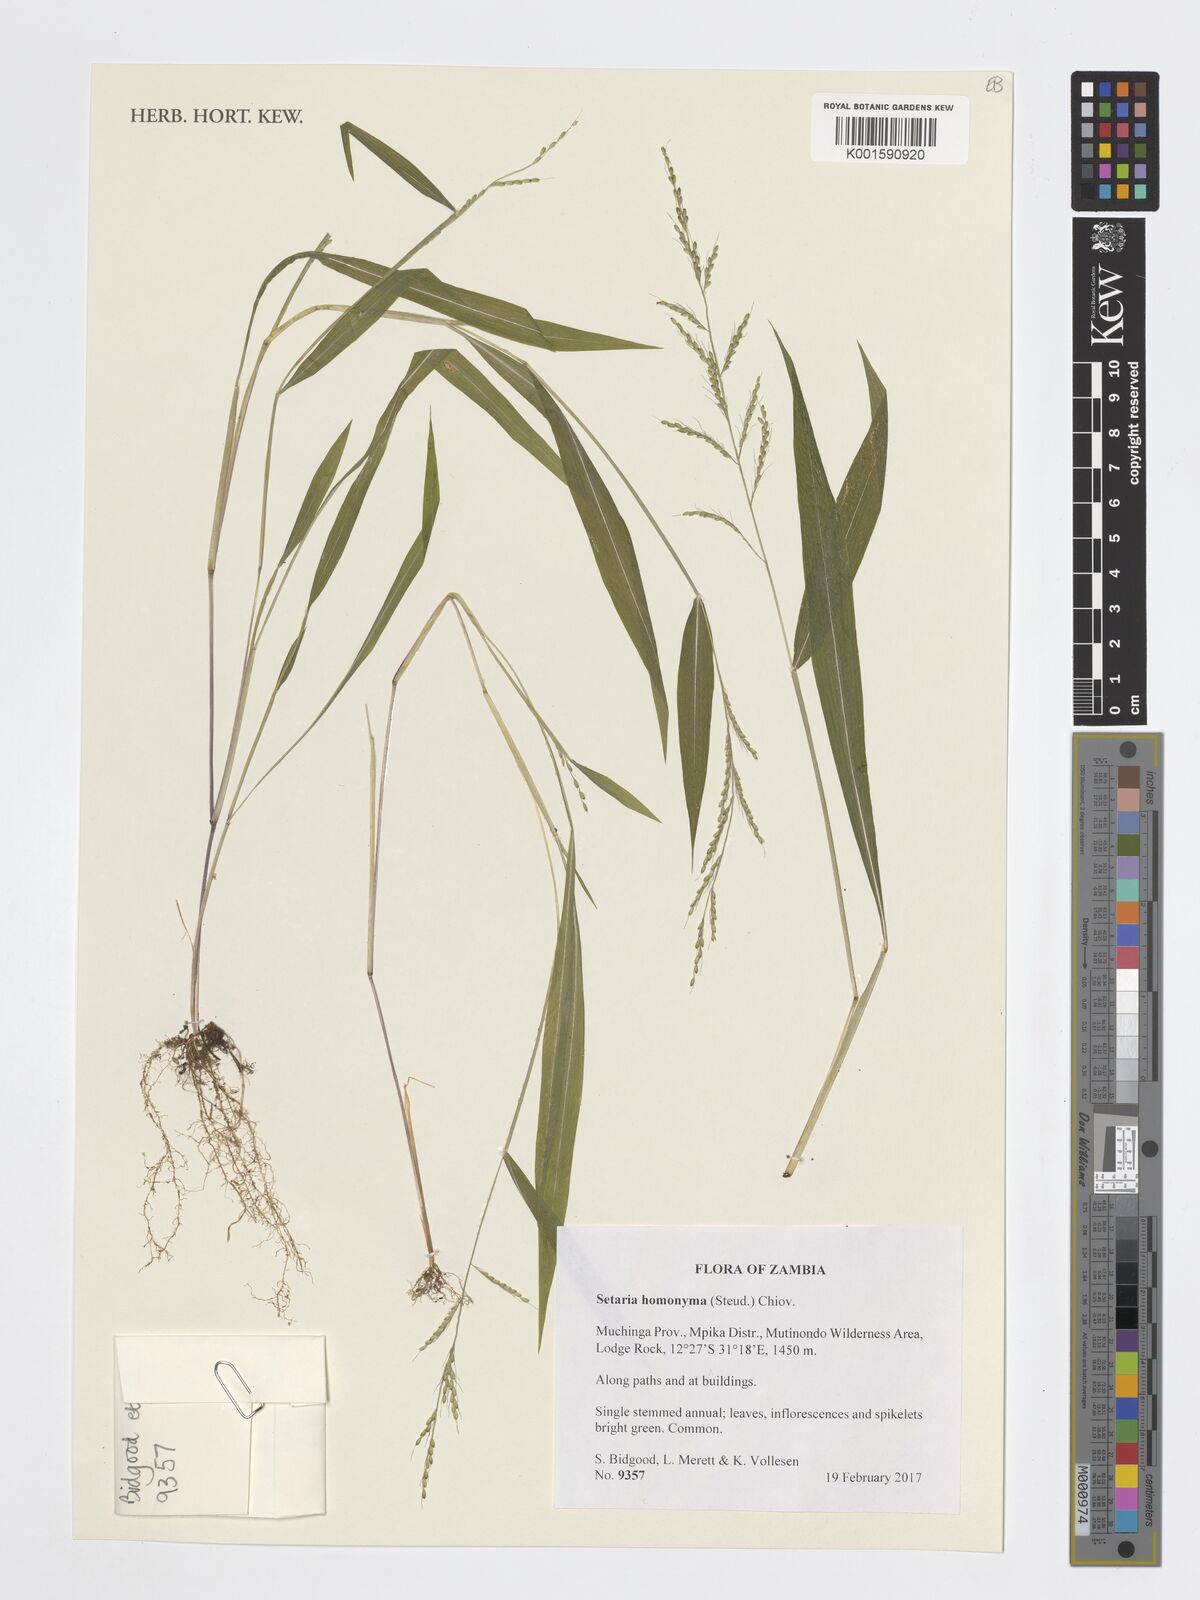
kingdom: Plantae
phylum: Tracheophyta
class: Liliopsida
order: Poales
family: Poaceae
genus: Setaria
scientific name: Setaria homonyma
